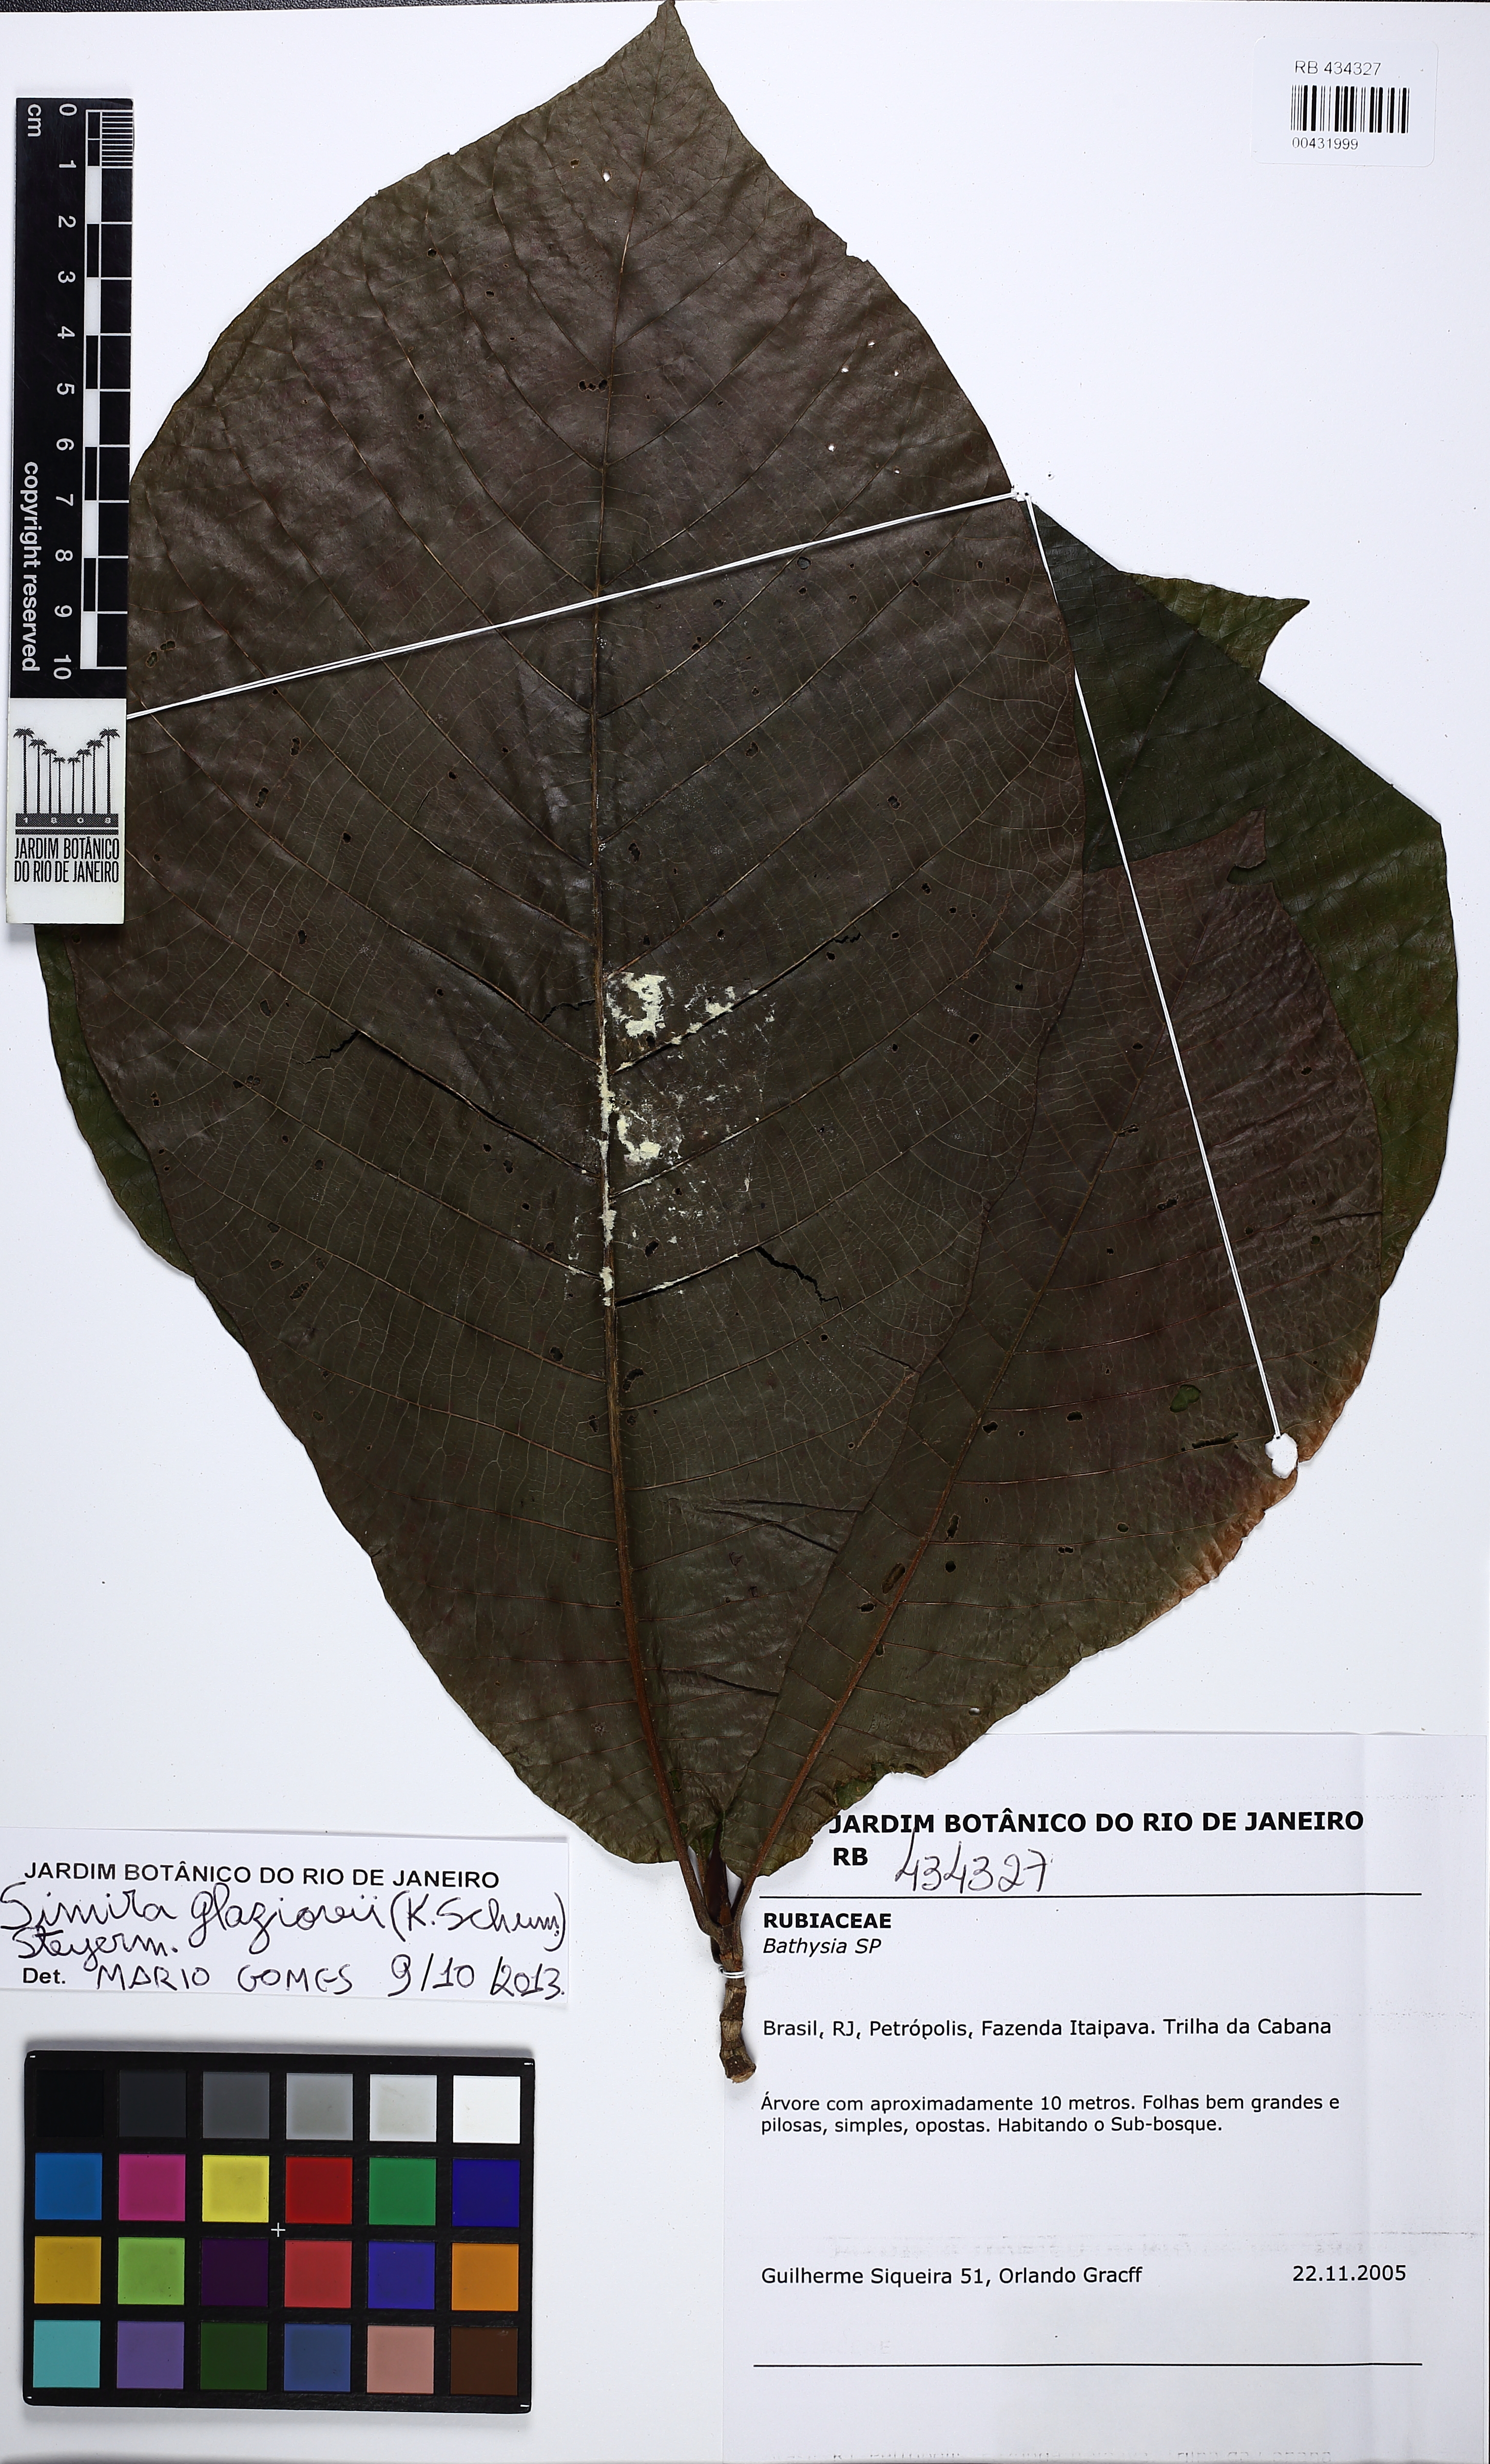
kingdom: Plantae
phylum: Tracheophyta
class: Magnoliopsida
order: Gentianales
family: Rubiaceae
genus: Simira
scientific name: Simira alba
